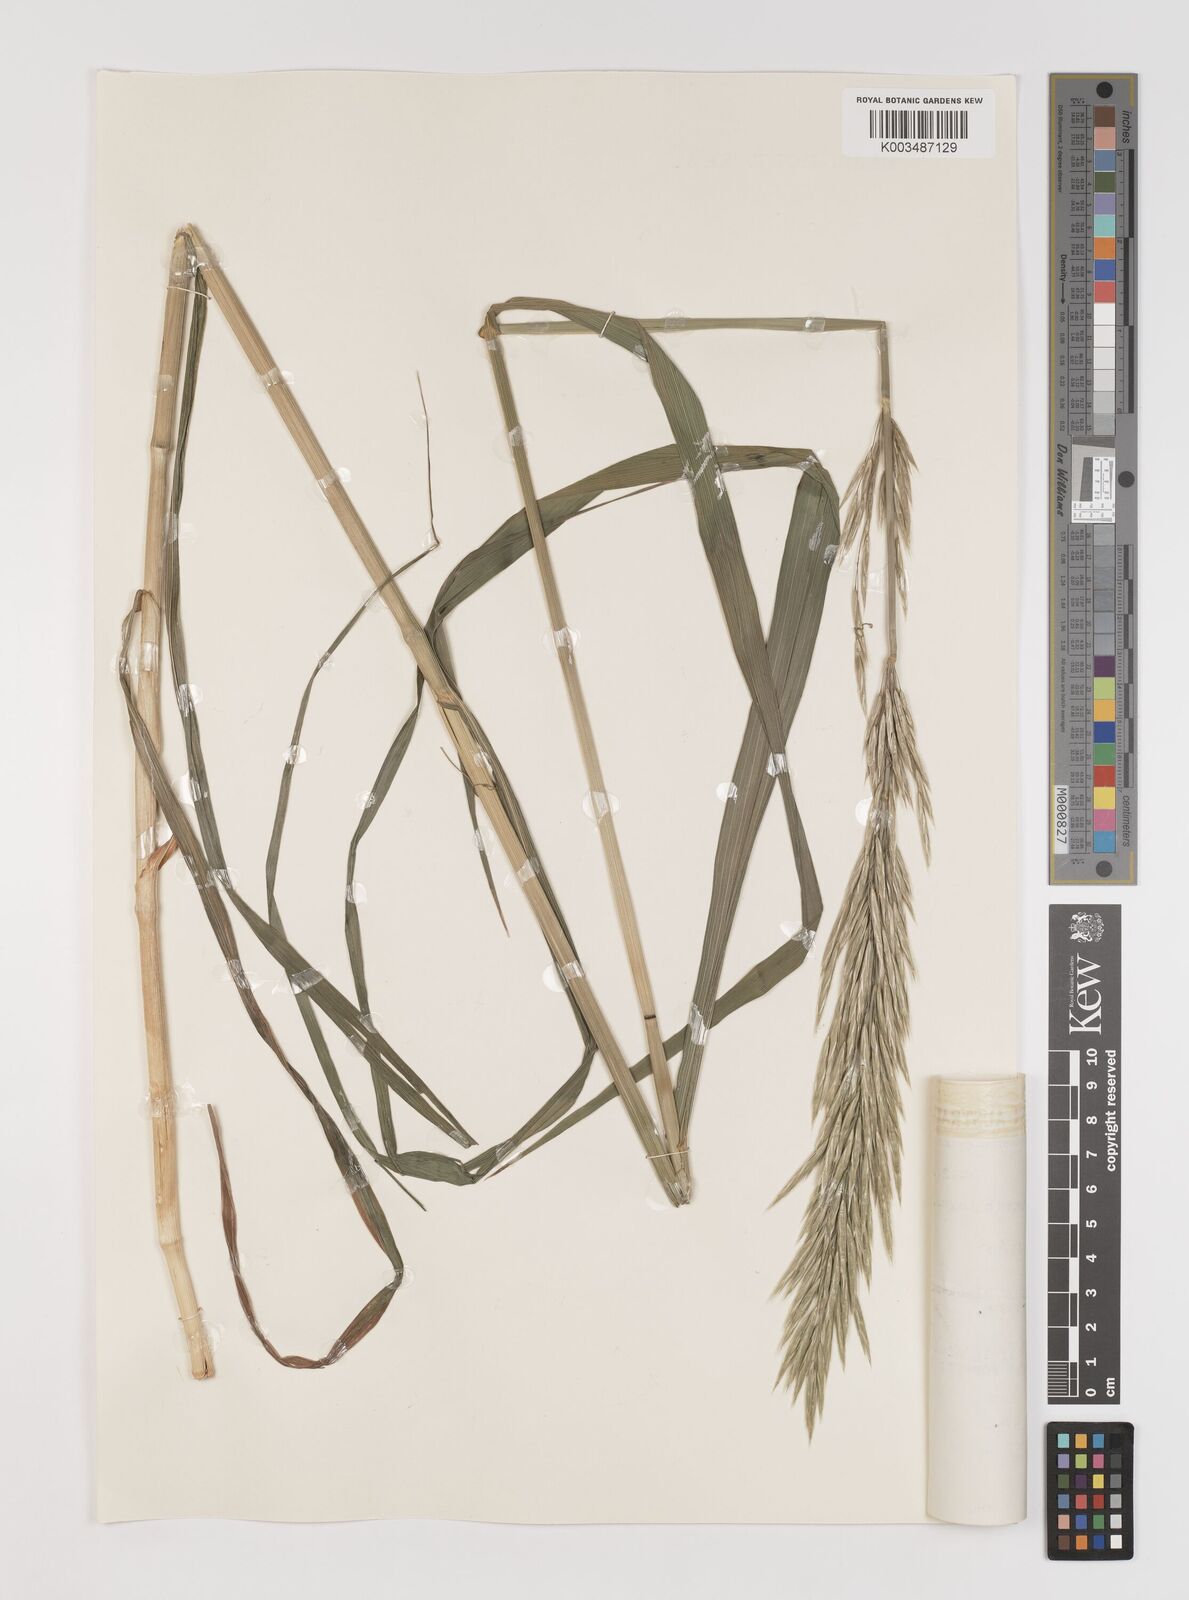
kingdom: Plantae
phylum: Tracheophyta
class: Liliopsida
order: Poales
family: Poaceae
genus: Bromus
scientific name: Bromus
